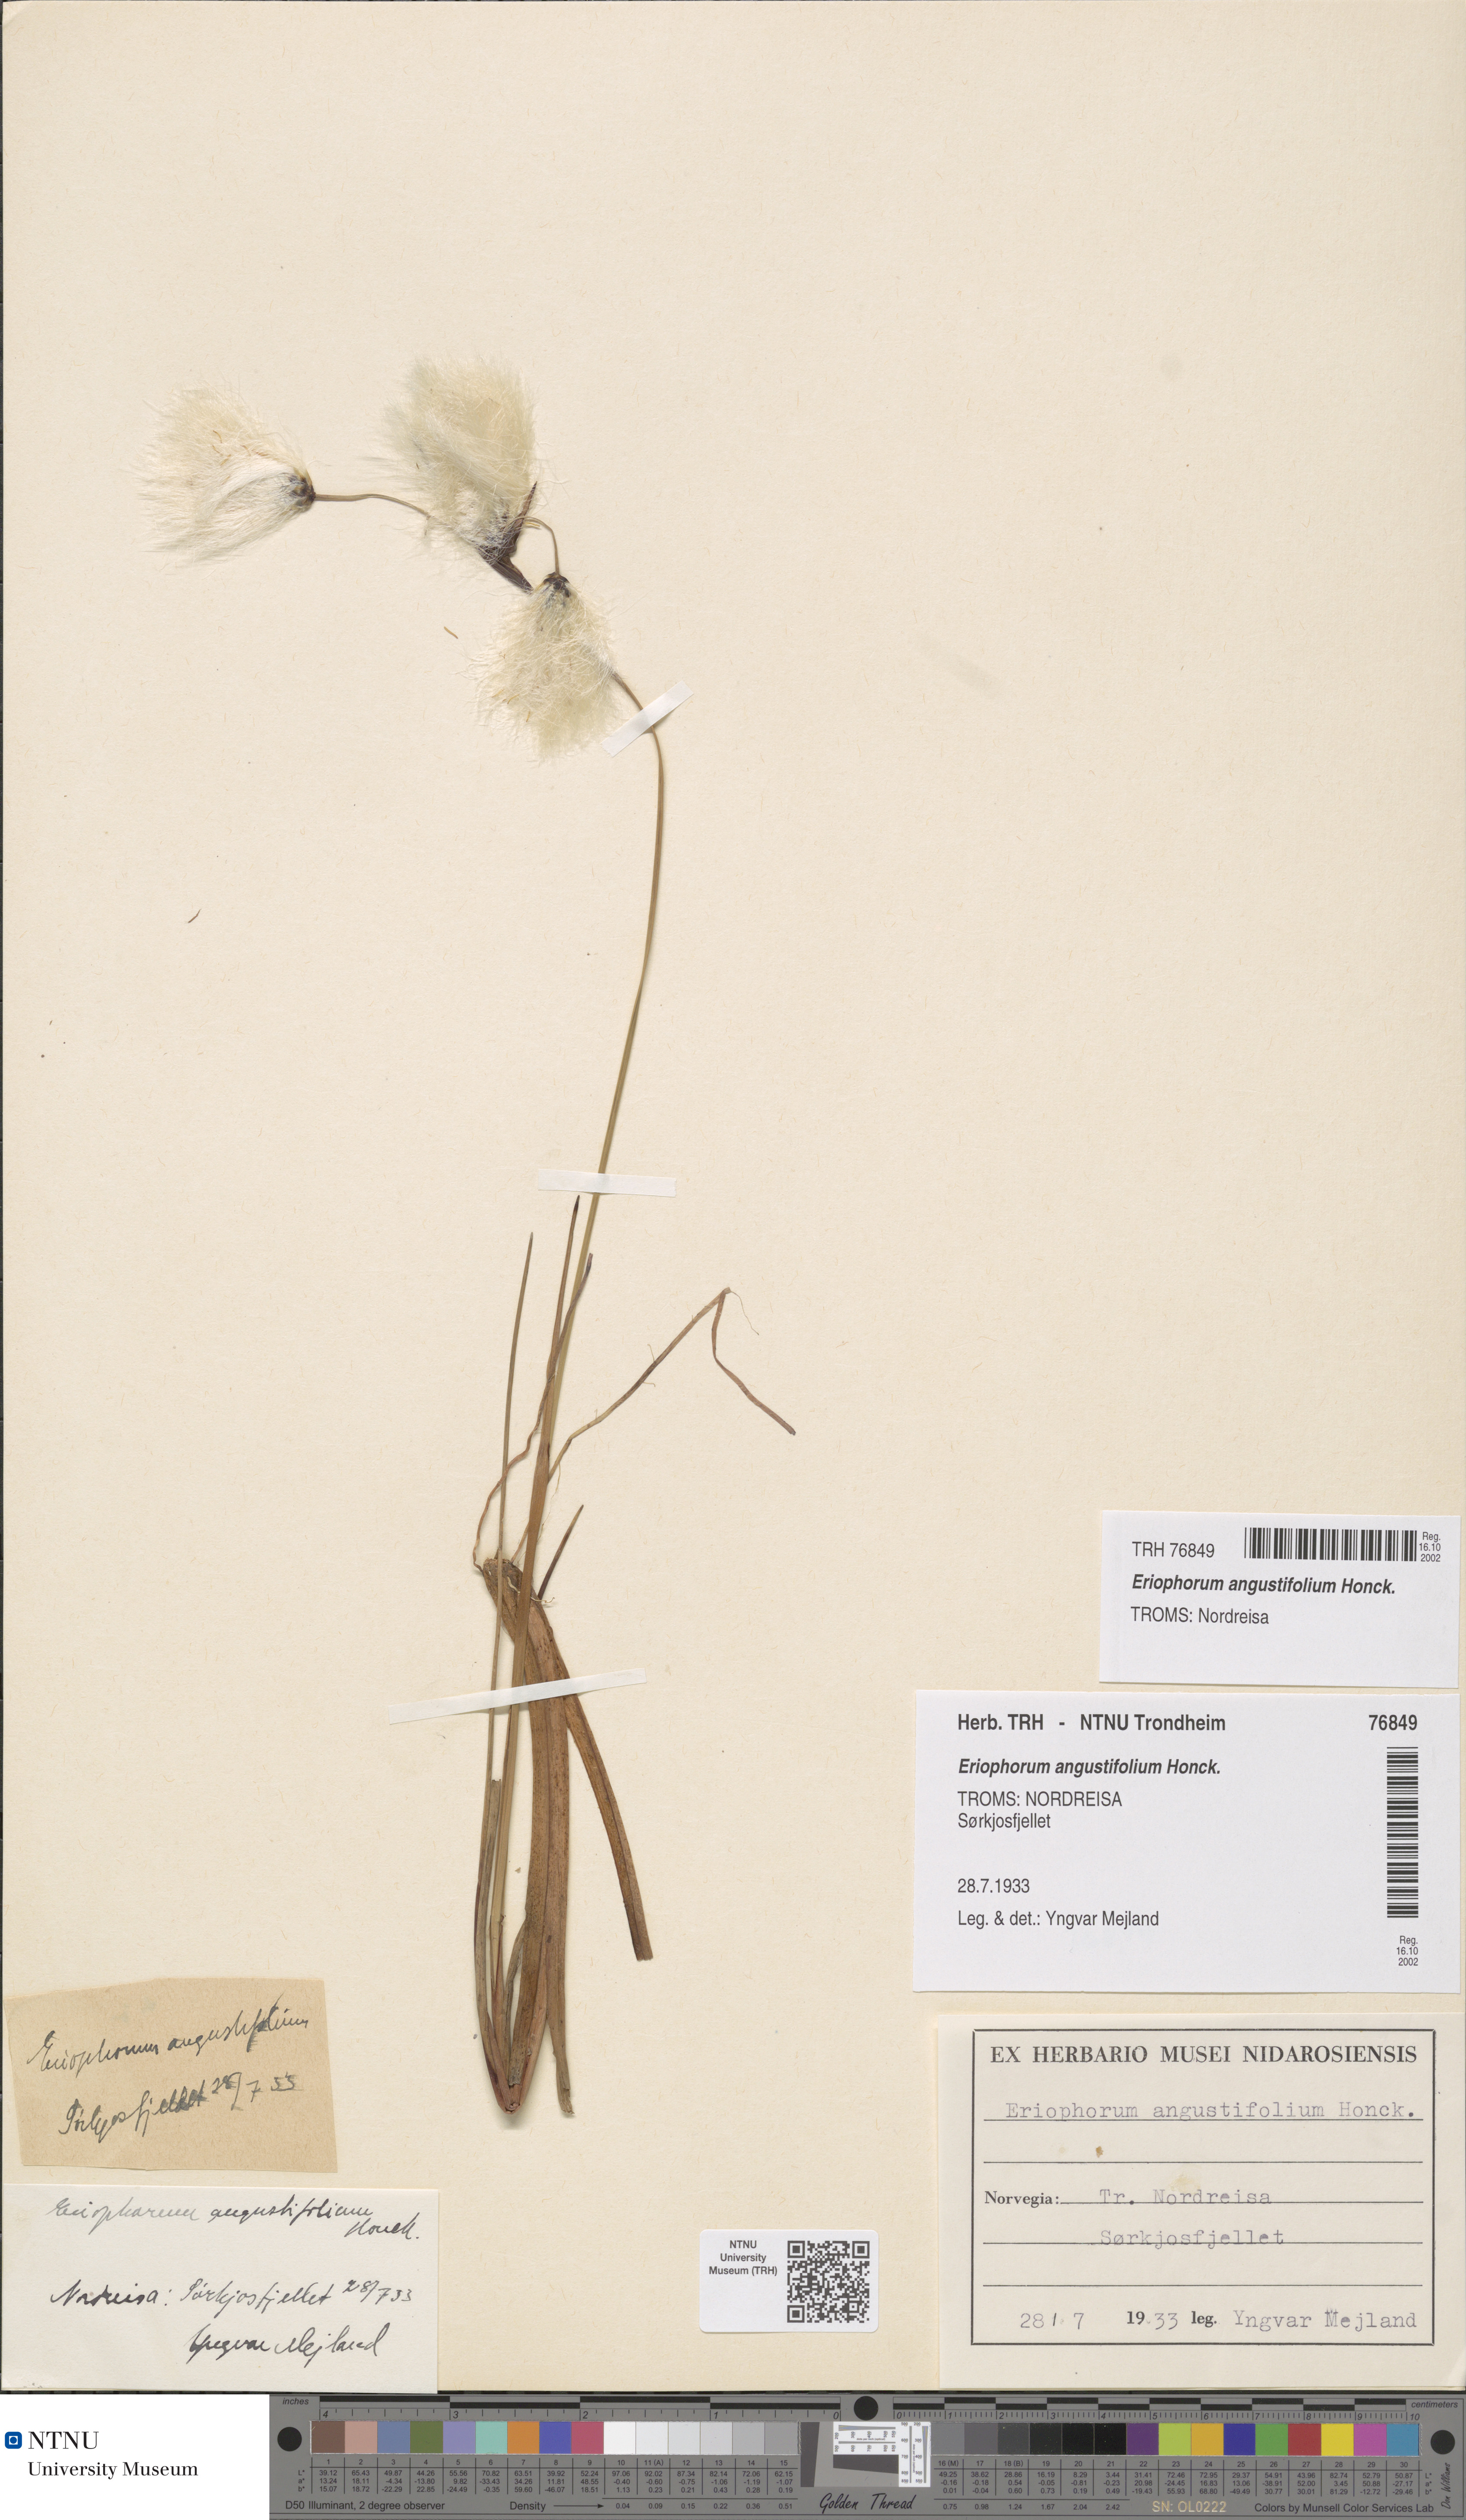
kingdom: Plantae
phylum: Tracheophyta
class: Liliopsida
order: Poales
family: Cyperaceae
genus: Eriophorum
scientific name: Eriophorum angustifolium
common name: Common cottongrass
